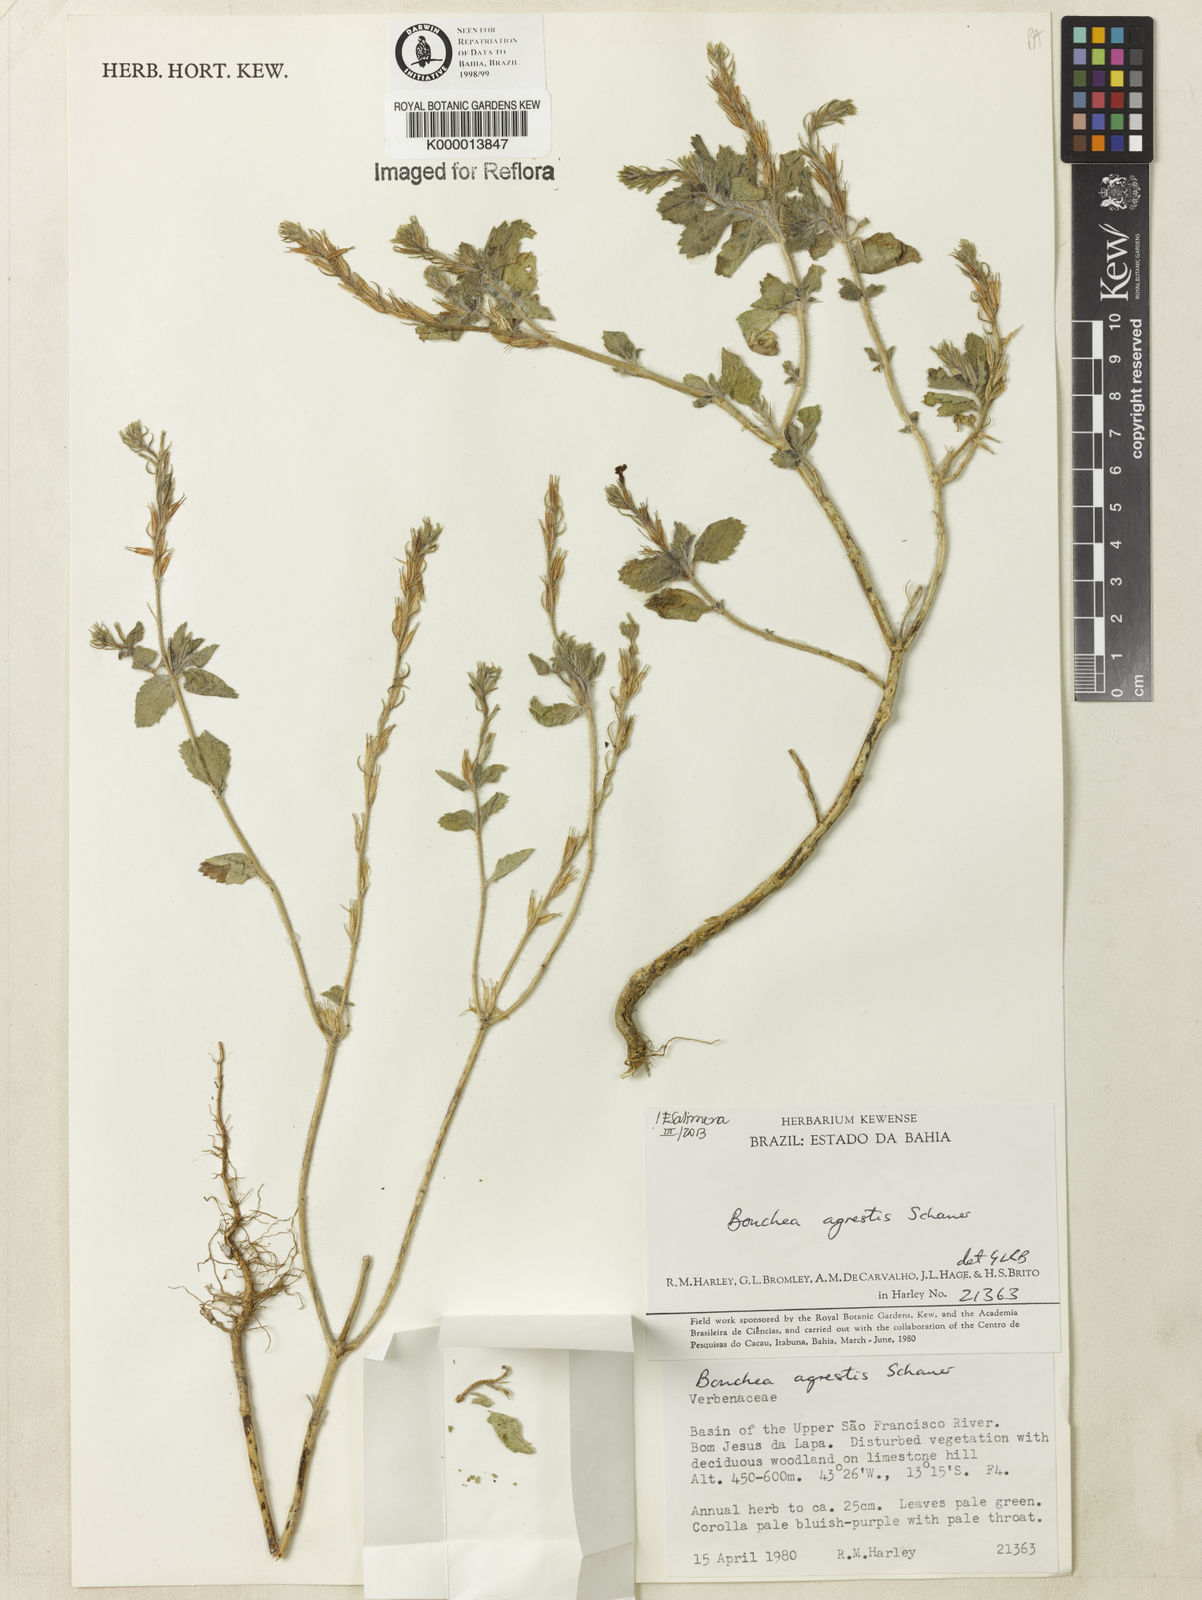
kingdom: Plantae
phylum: Tracheophyta
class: Magnoliopsida
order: Lamiales
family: Verbenaceae
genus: Bouchea
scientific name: Bouchea agrestis
